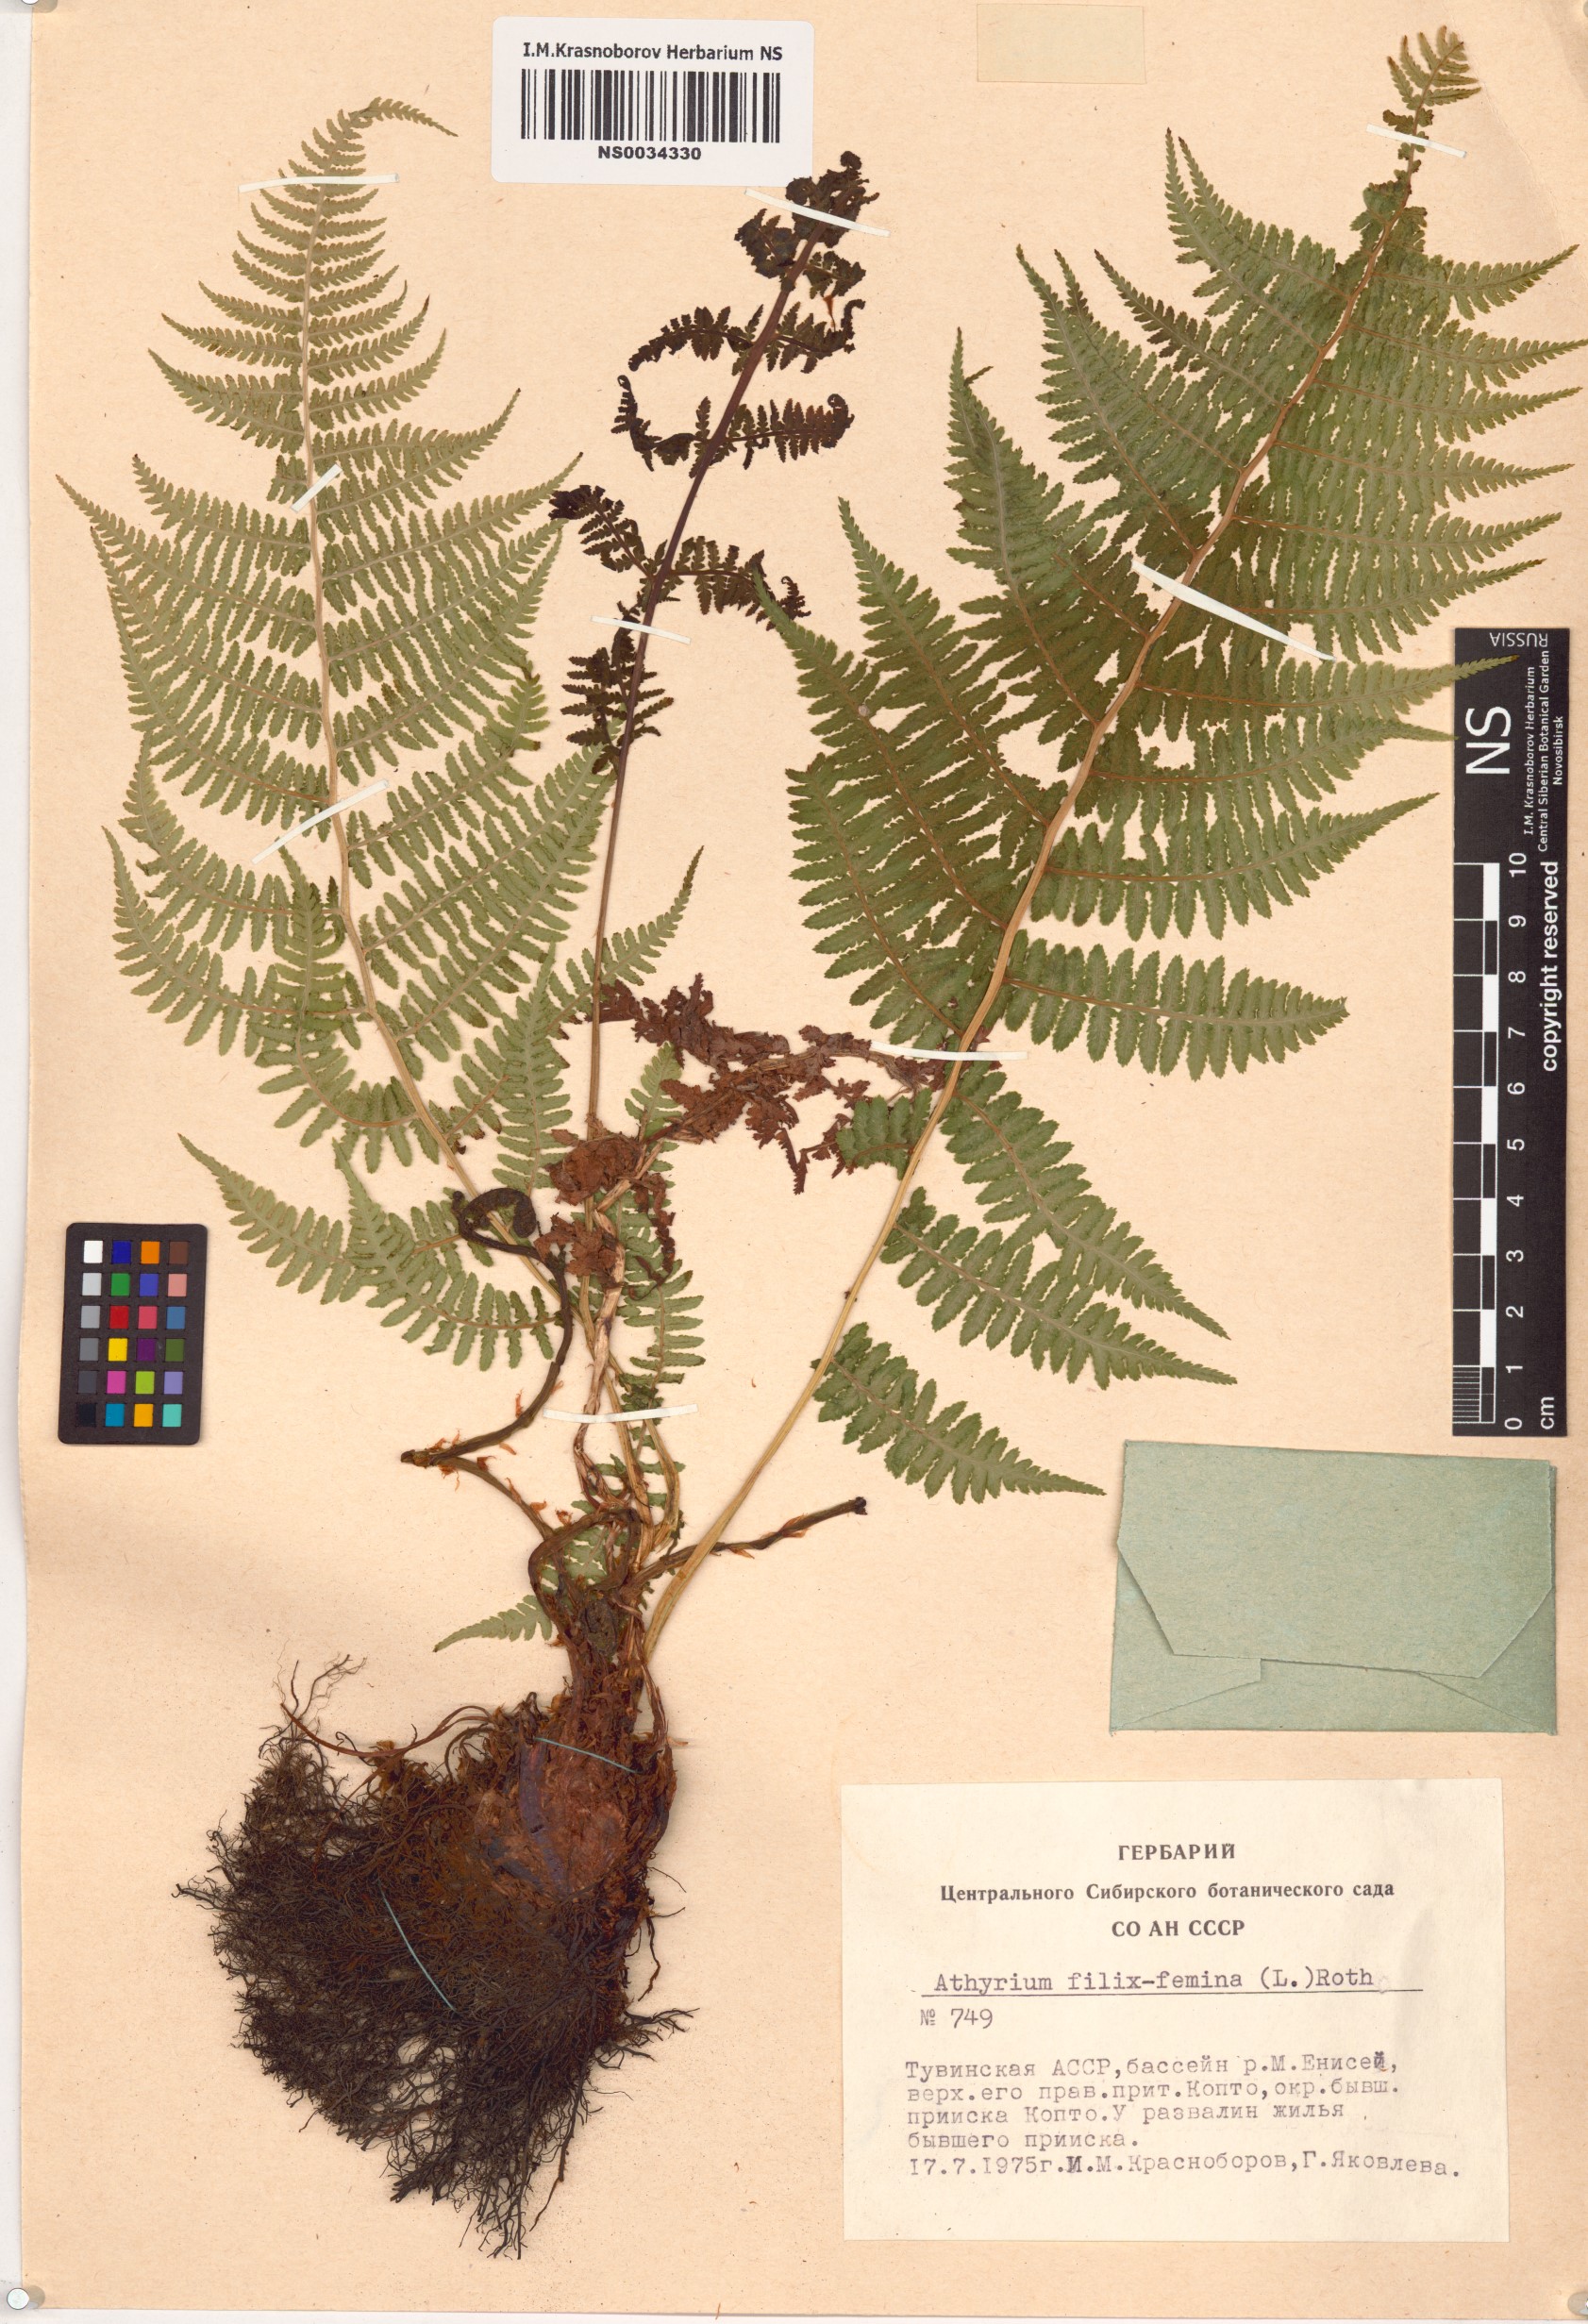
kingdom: Plantae
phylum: Tracheophyta
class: Polypodiopsida
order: Polypodiales
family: Athyriaceae
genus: Athyrium
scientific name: Athyrium filix-femina
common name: Lady fern
